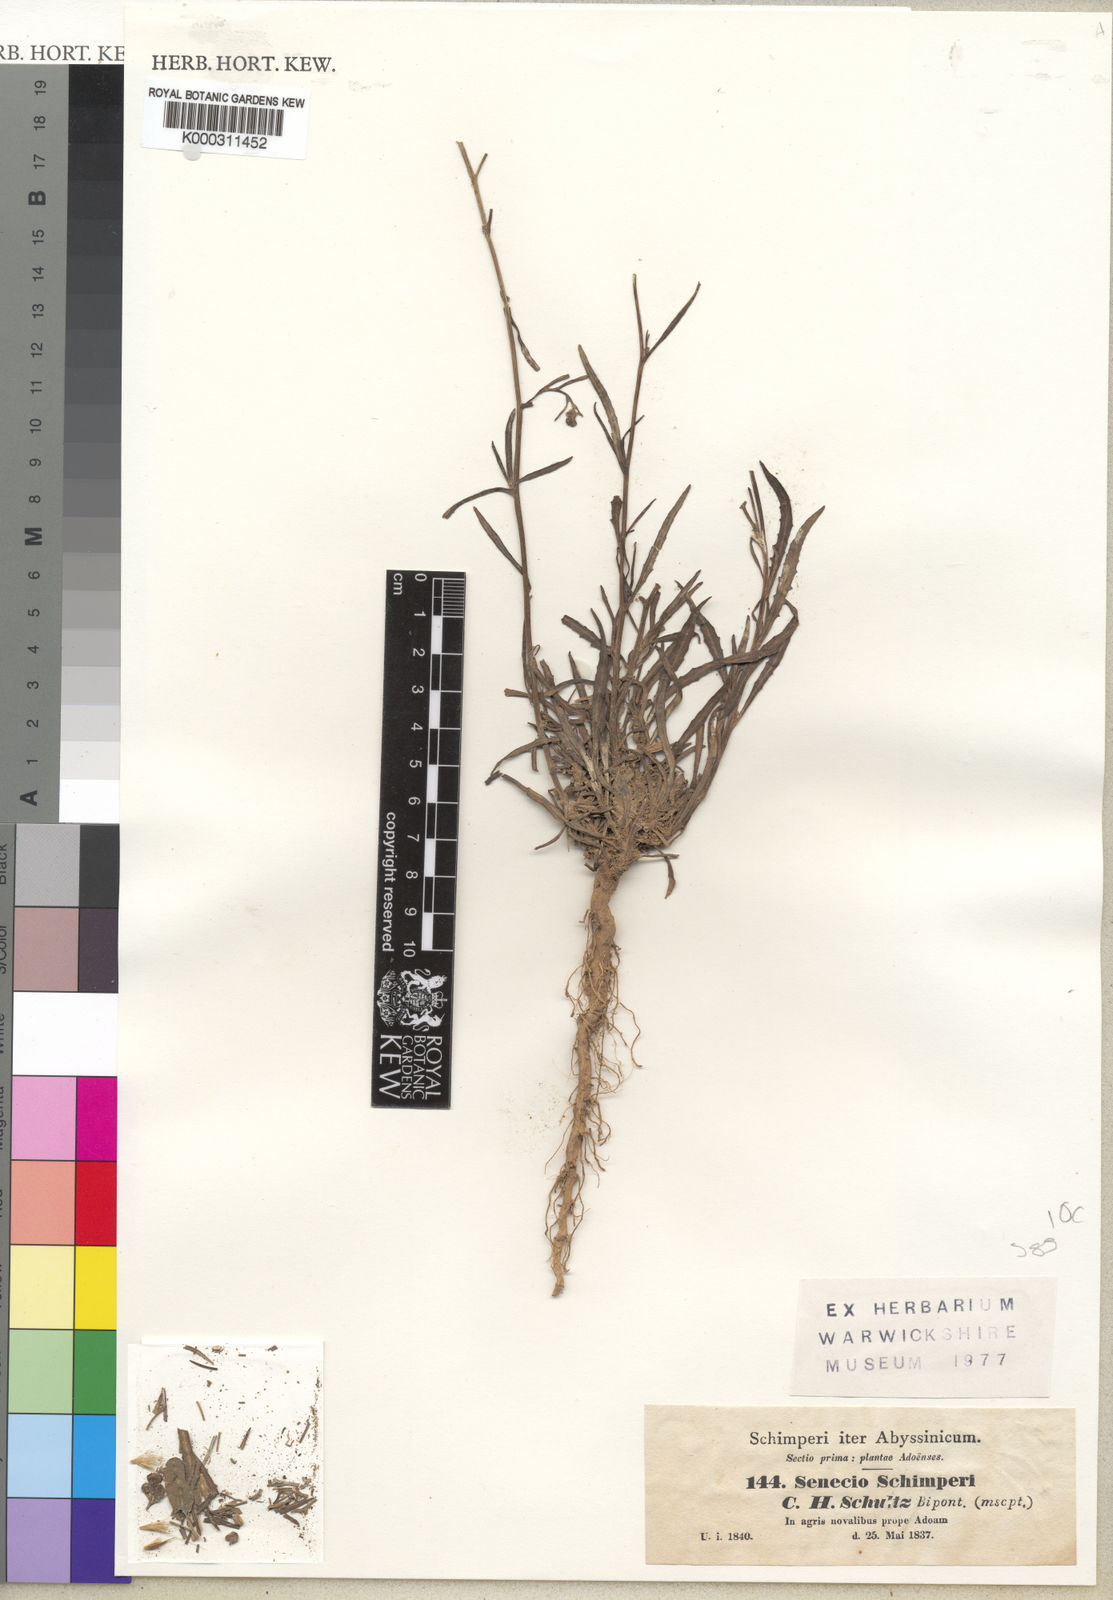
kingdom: Plantae
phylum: Tracheophyta
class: Magnoliopsida
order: Asterales
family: Asteraceae
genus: Senecio
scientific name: Senecio schimperi
